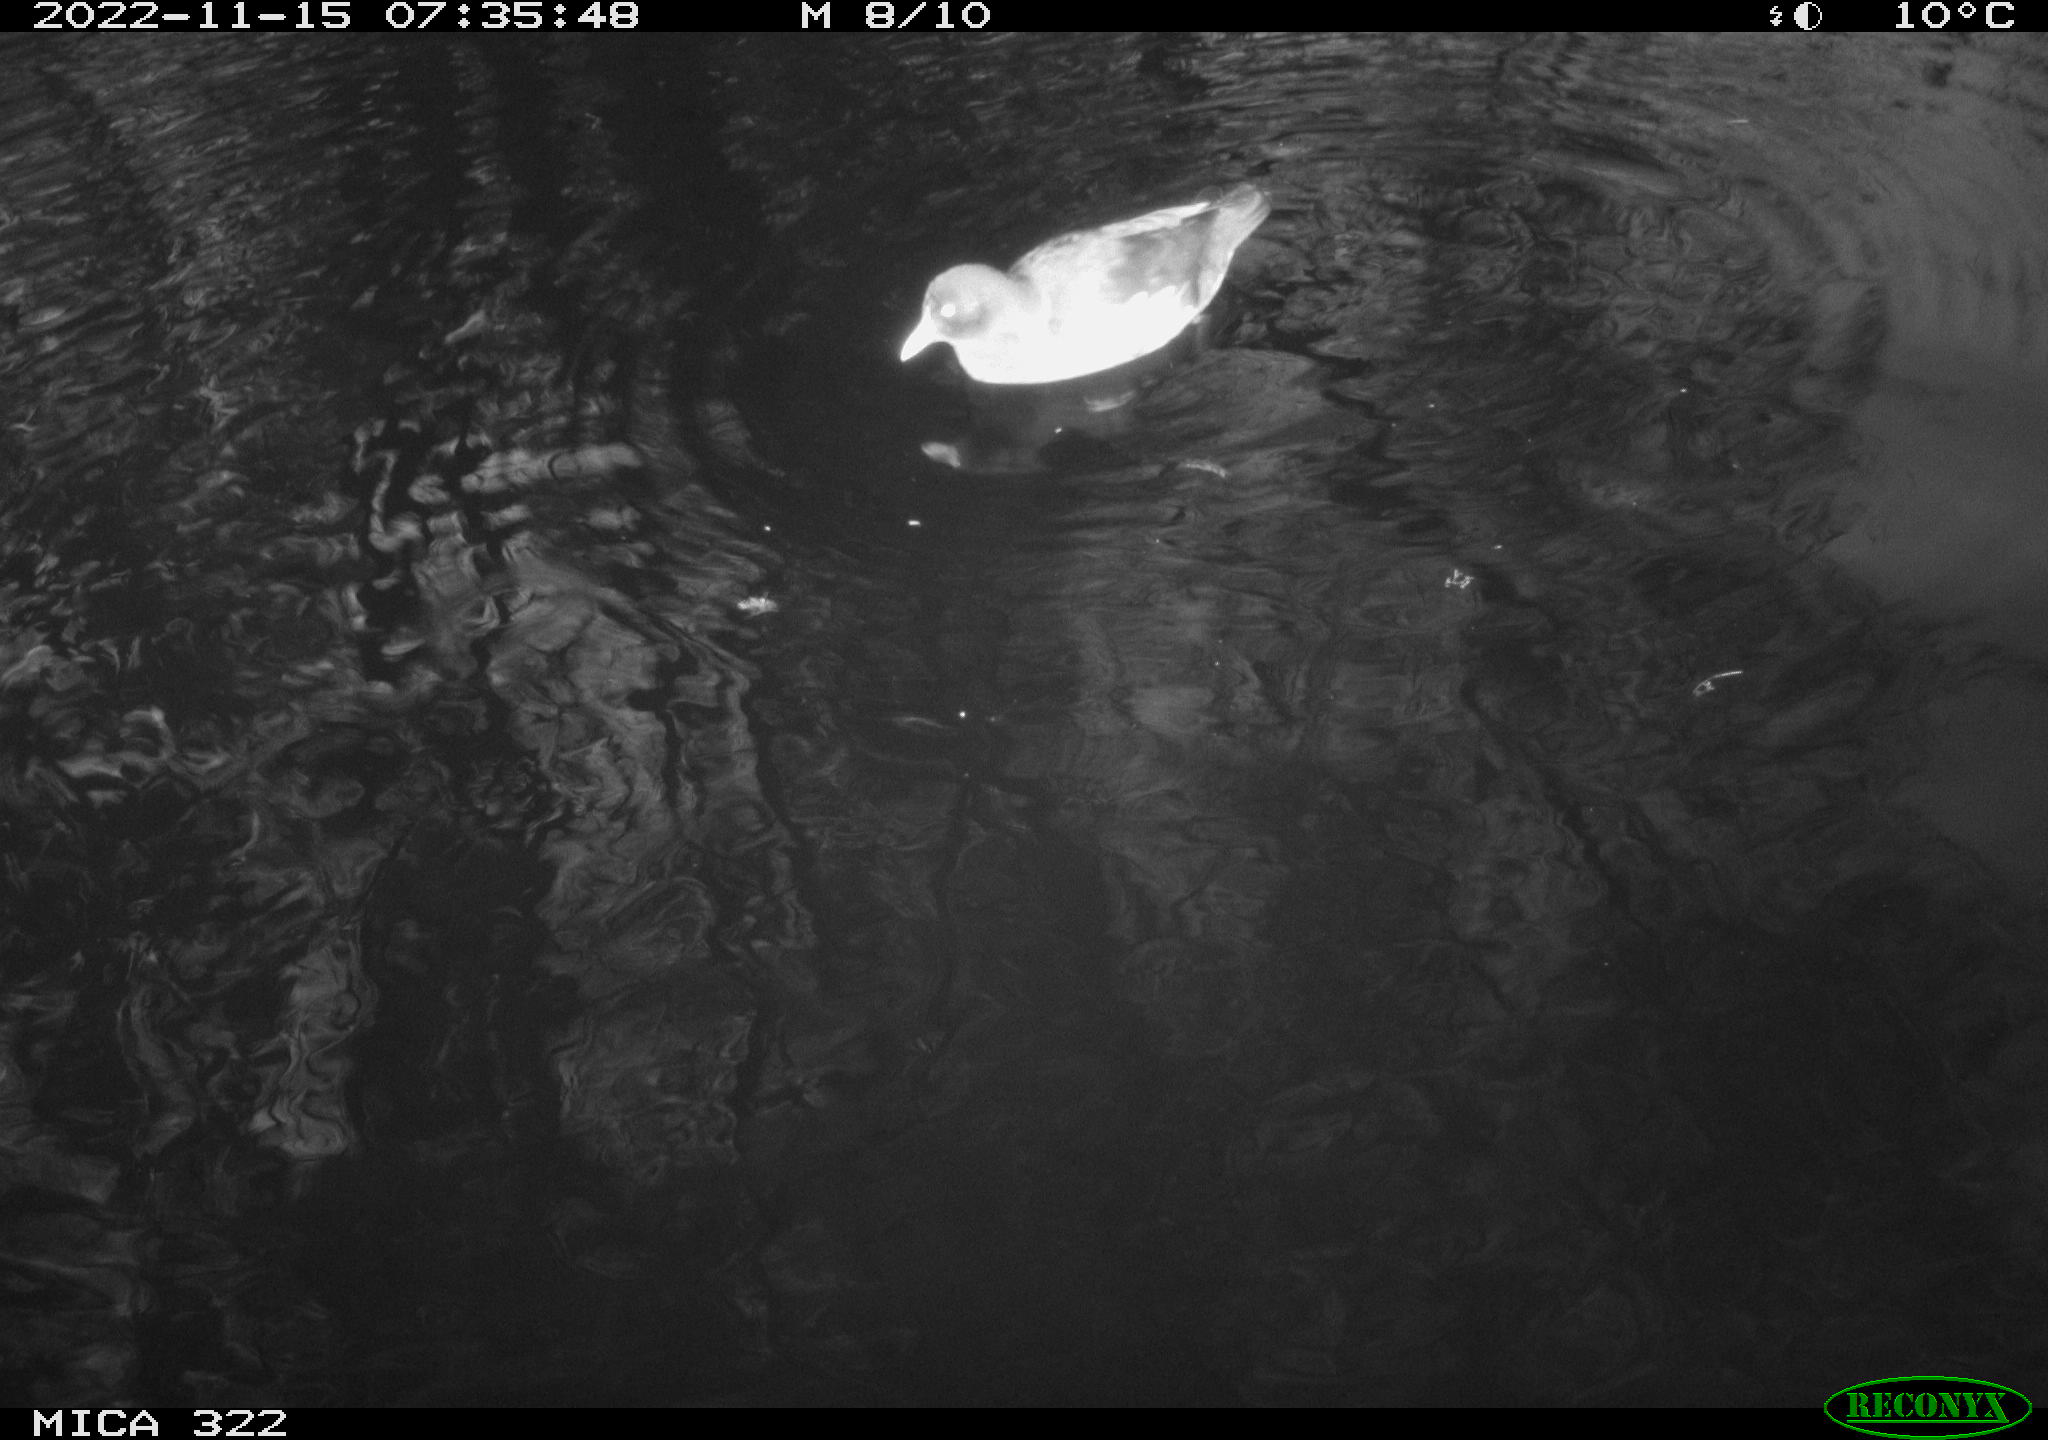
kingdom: Animalia
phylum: Chordata
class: Aves
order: Gruiformes
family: Rallidae
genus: Gallinula
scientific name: Gallinula chloropus
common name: Common moorhen
